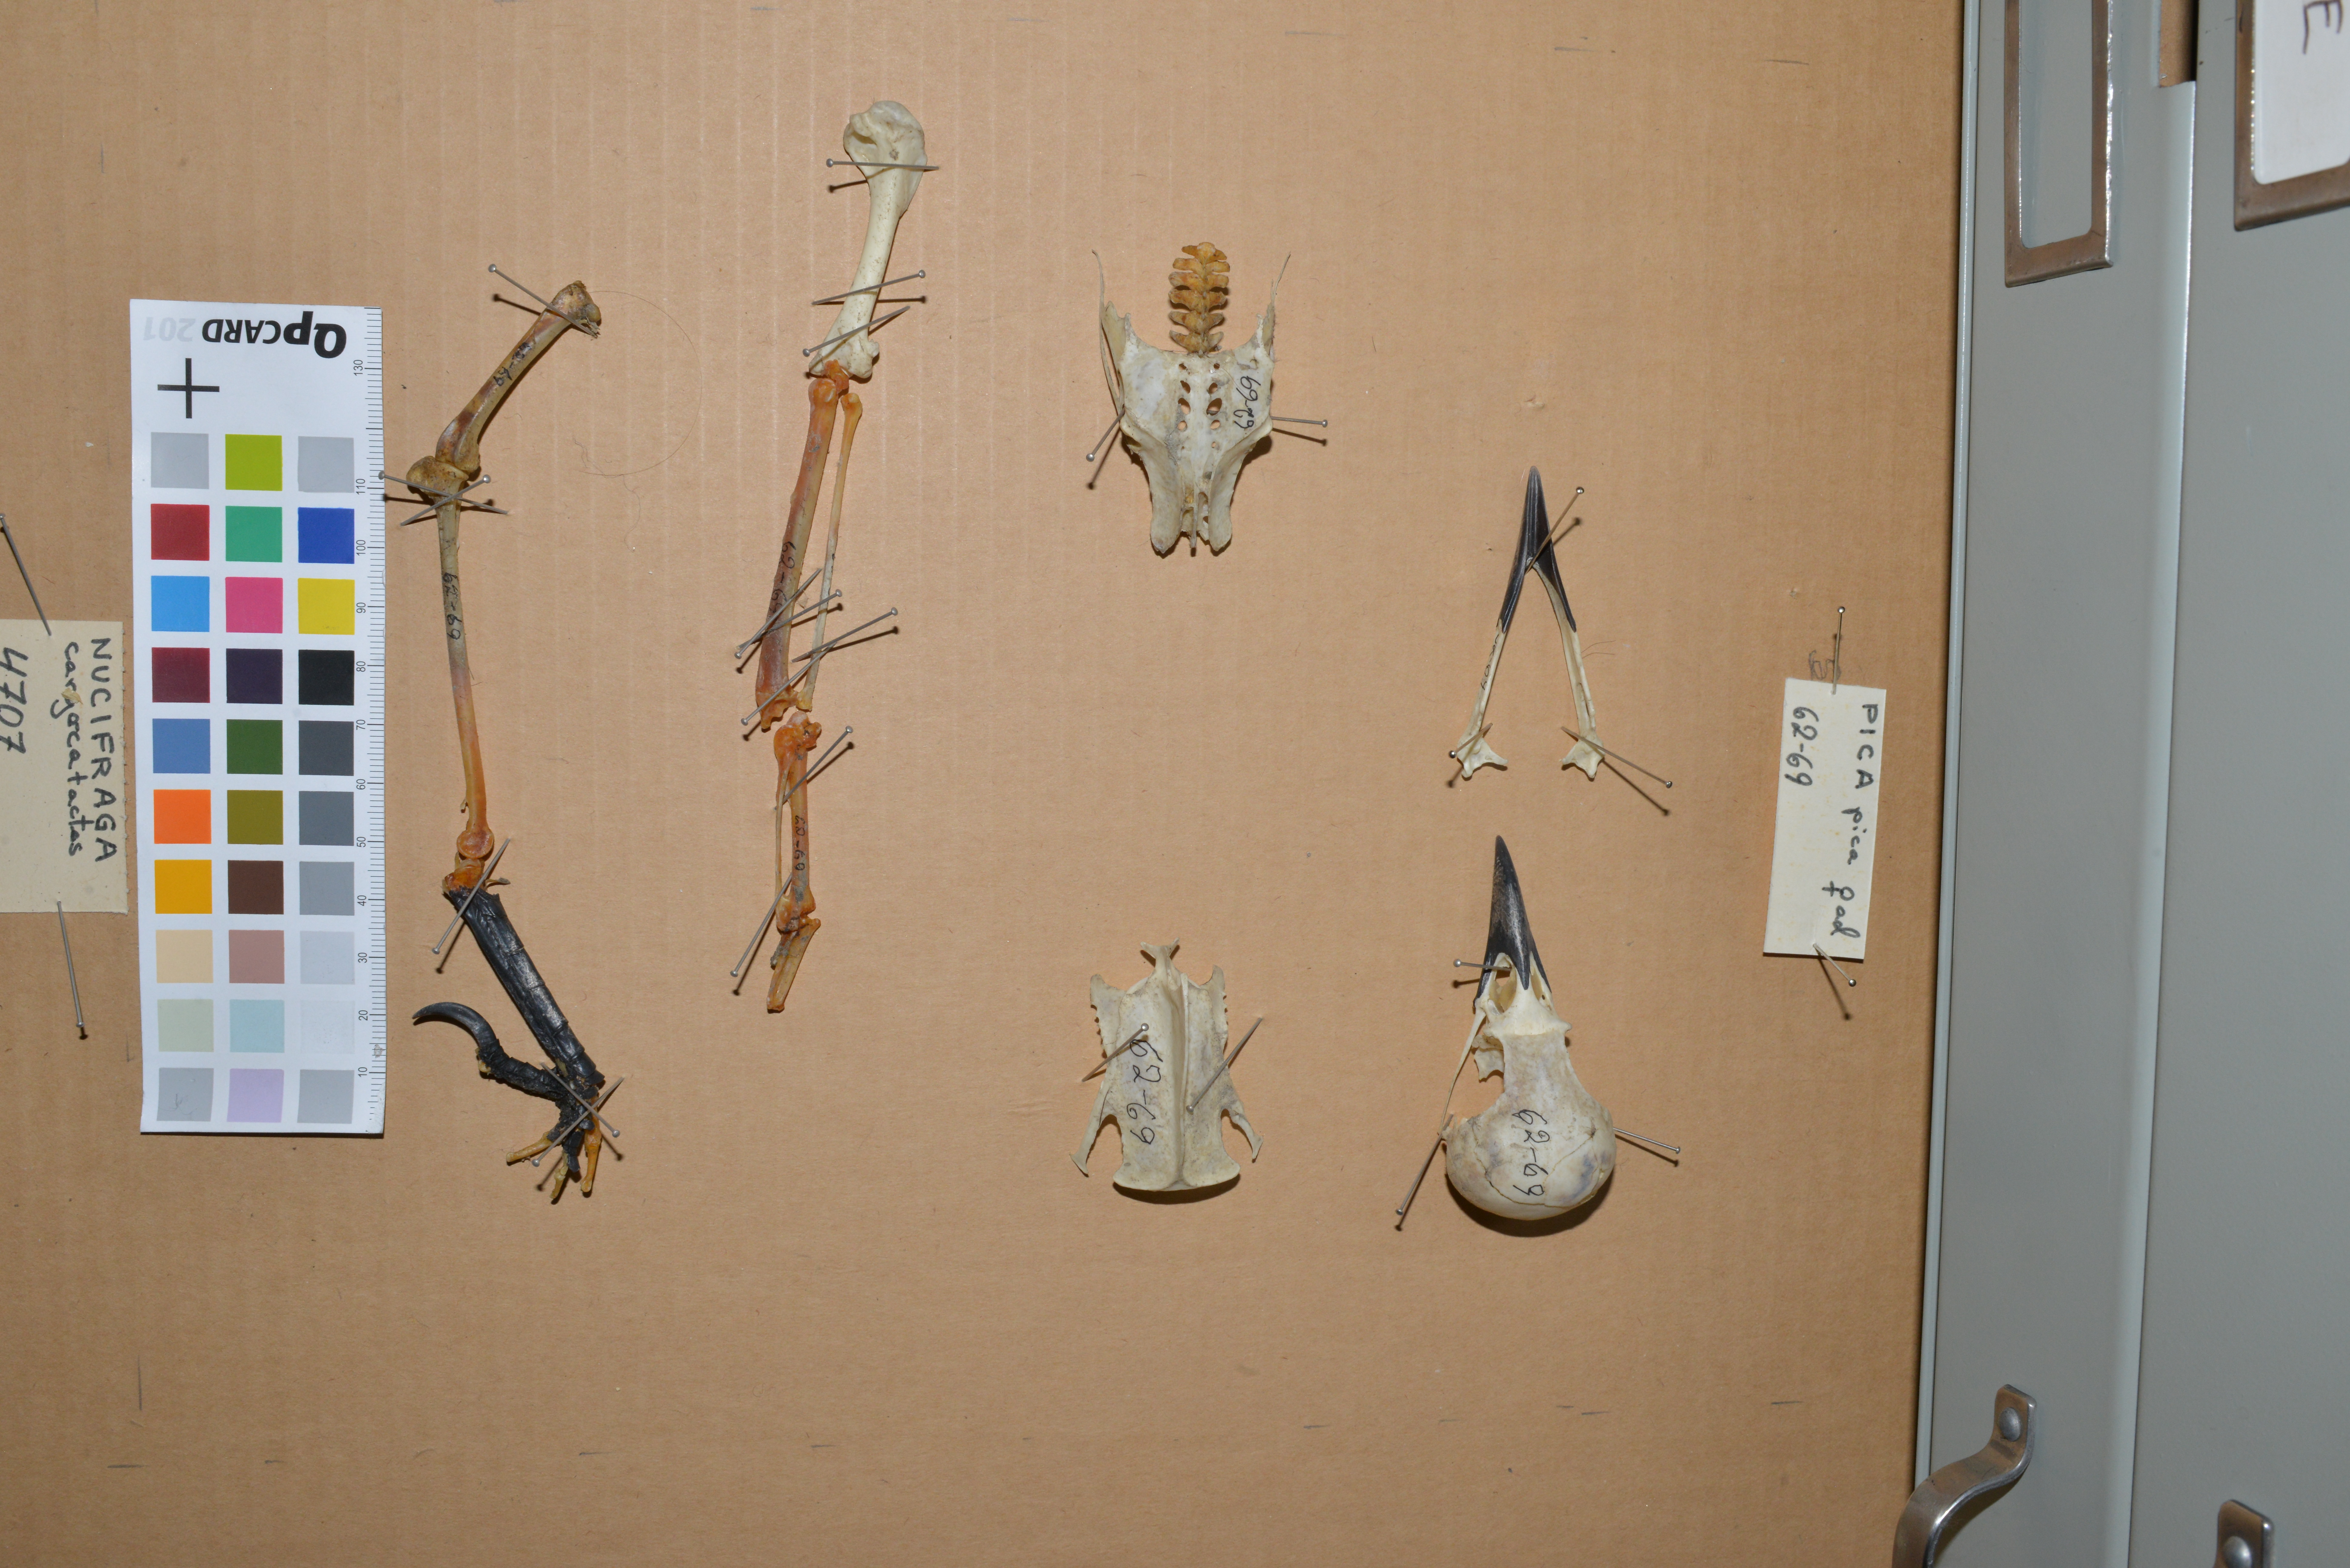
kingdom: Animalia
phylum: Chordata
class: Aves
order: Passeriformes
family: Corvidae
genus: Pica
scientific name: Pica pica
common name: Eurasian magpie
